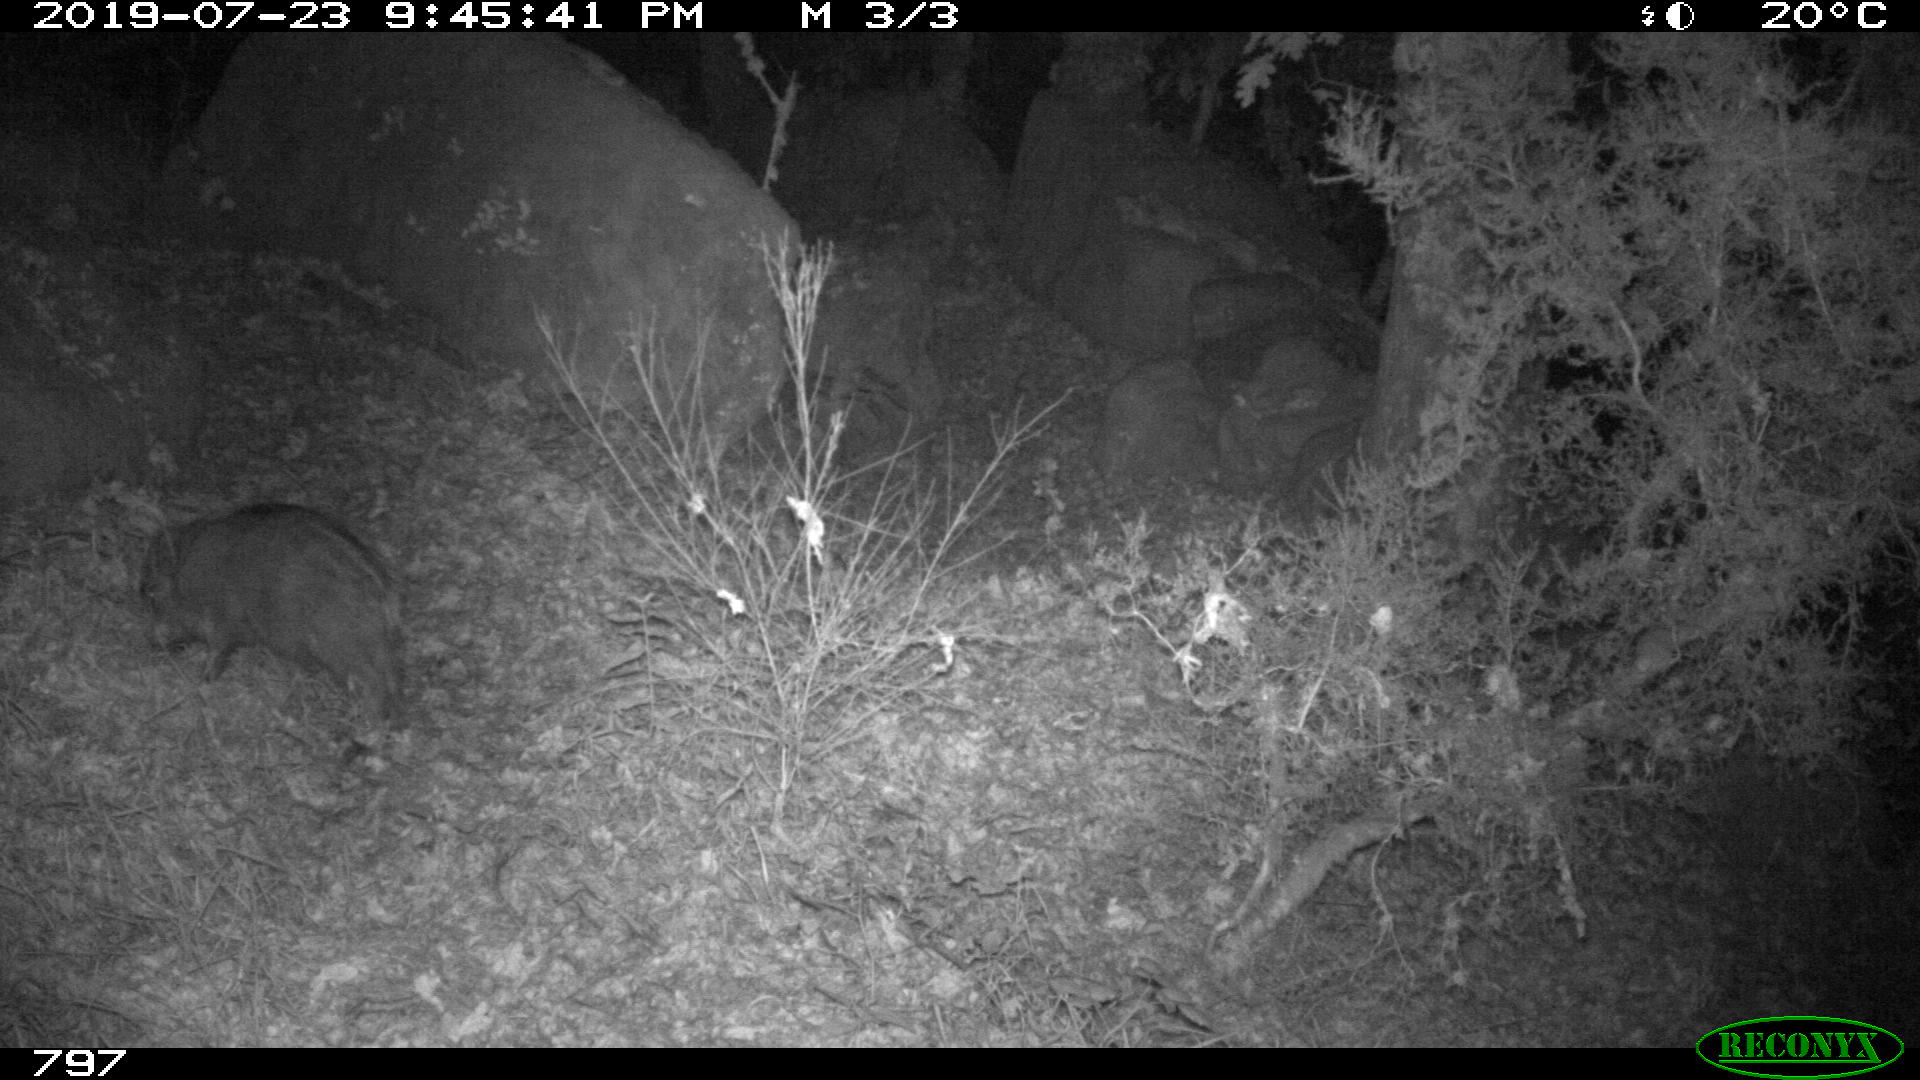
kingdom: Animalia
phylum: Chordata
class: Mammalia
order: Artiodactyla
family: Suidae
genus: Sus
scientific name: Sus scrofa
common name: Wild boar
